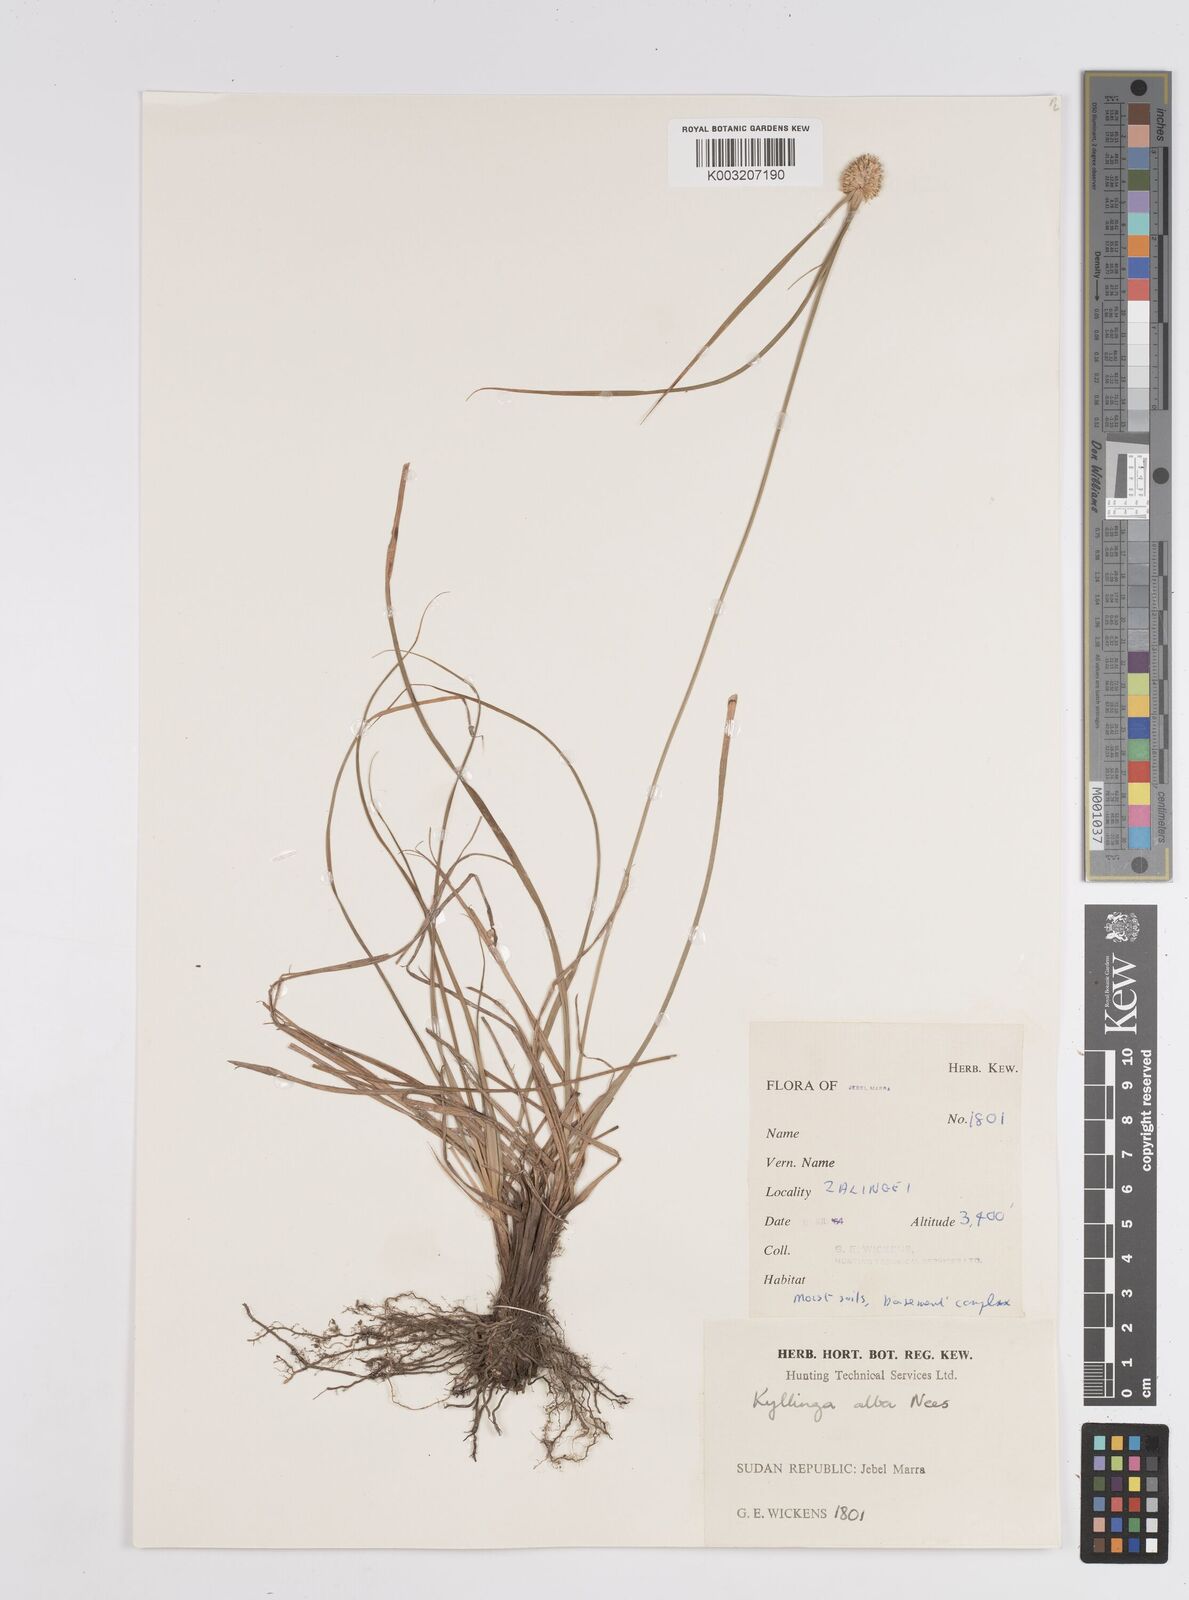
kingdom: Plantae
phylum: Tracheophyta
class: Liliopsida
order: Poales
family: Cyperaceae
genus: Cyperus
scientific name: Cyperus
